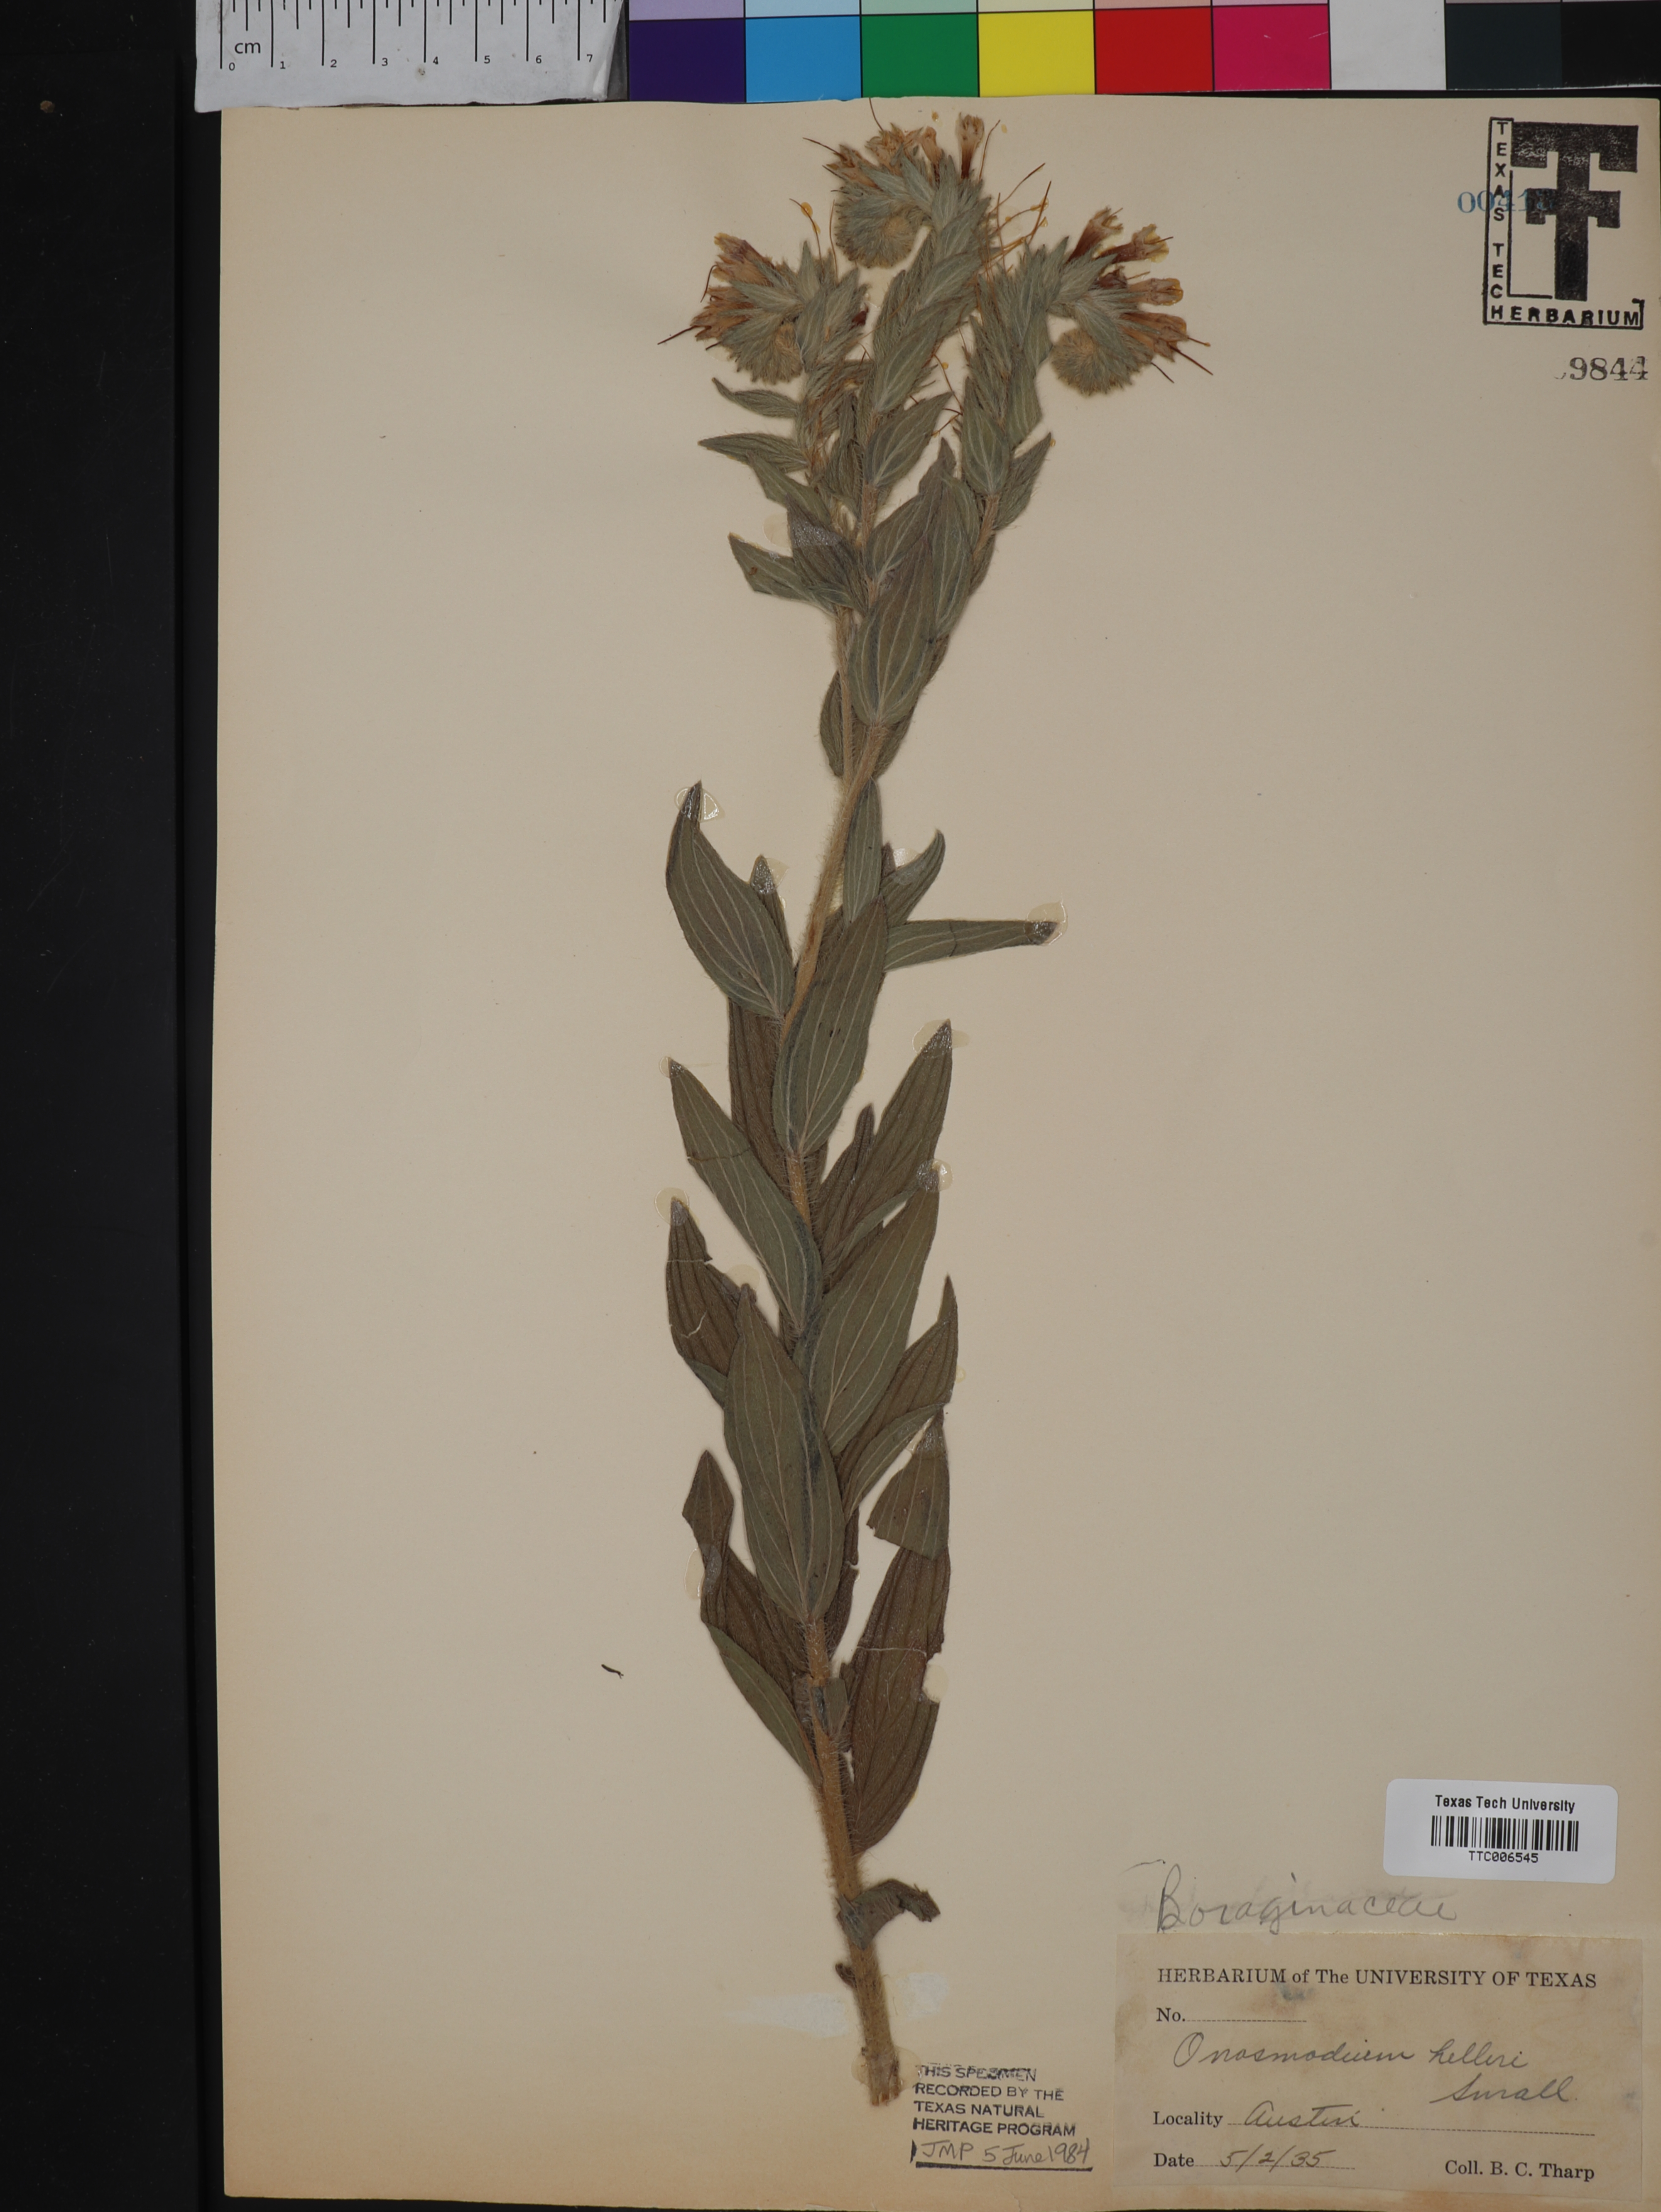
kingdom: Plantae
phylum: Tracheophyta
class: Magnoliopsida
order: Boraginales
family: Boraginaceae
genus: Lithospermum
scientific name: Lithospermum helleri
